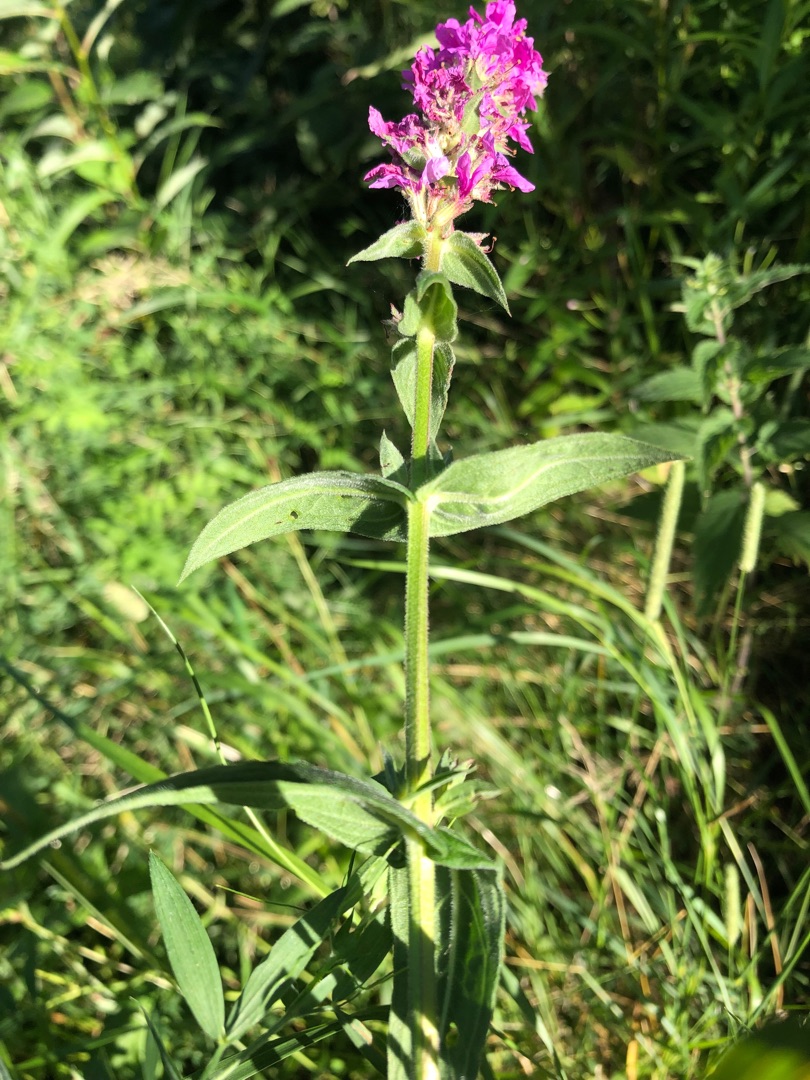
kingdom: Plantae
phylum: Tracheophyta
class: Magnoliopsida
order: Myrtales
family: Lythraceae
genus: Lythrum
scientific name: Lythrum salicaria
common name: Kattehale
